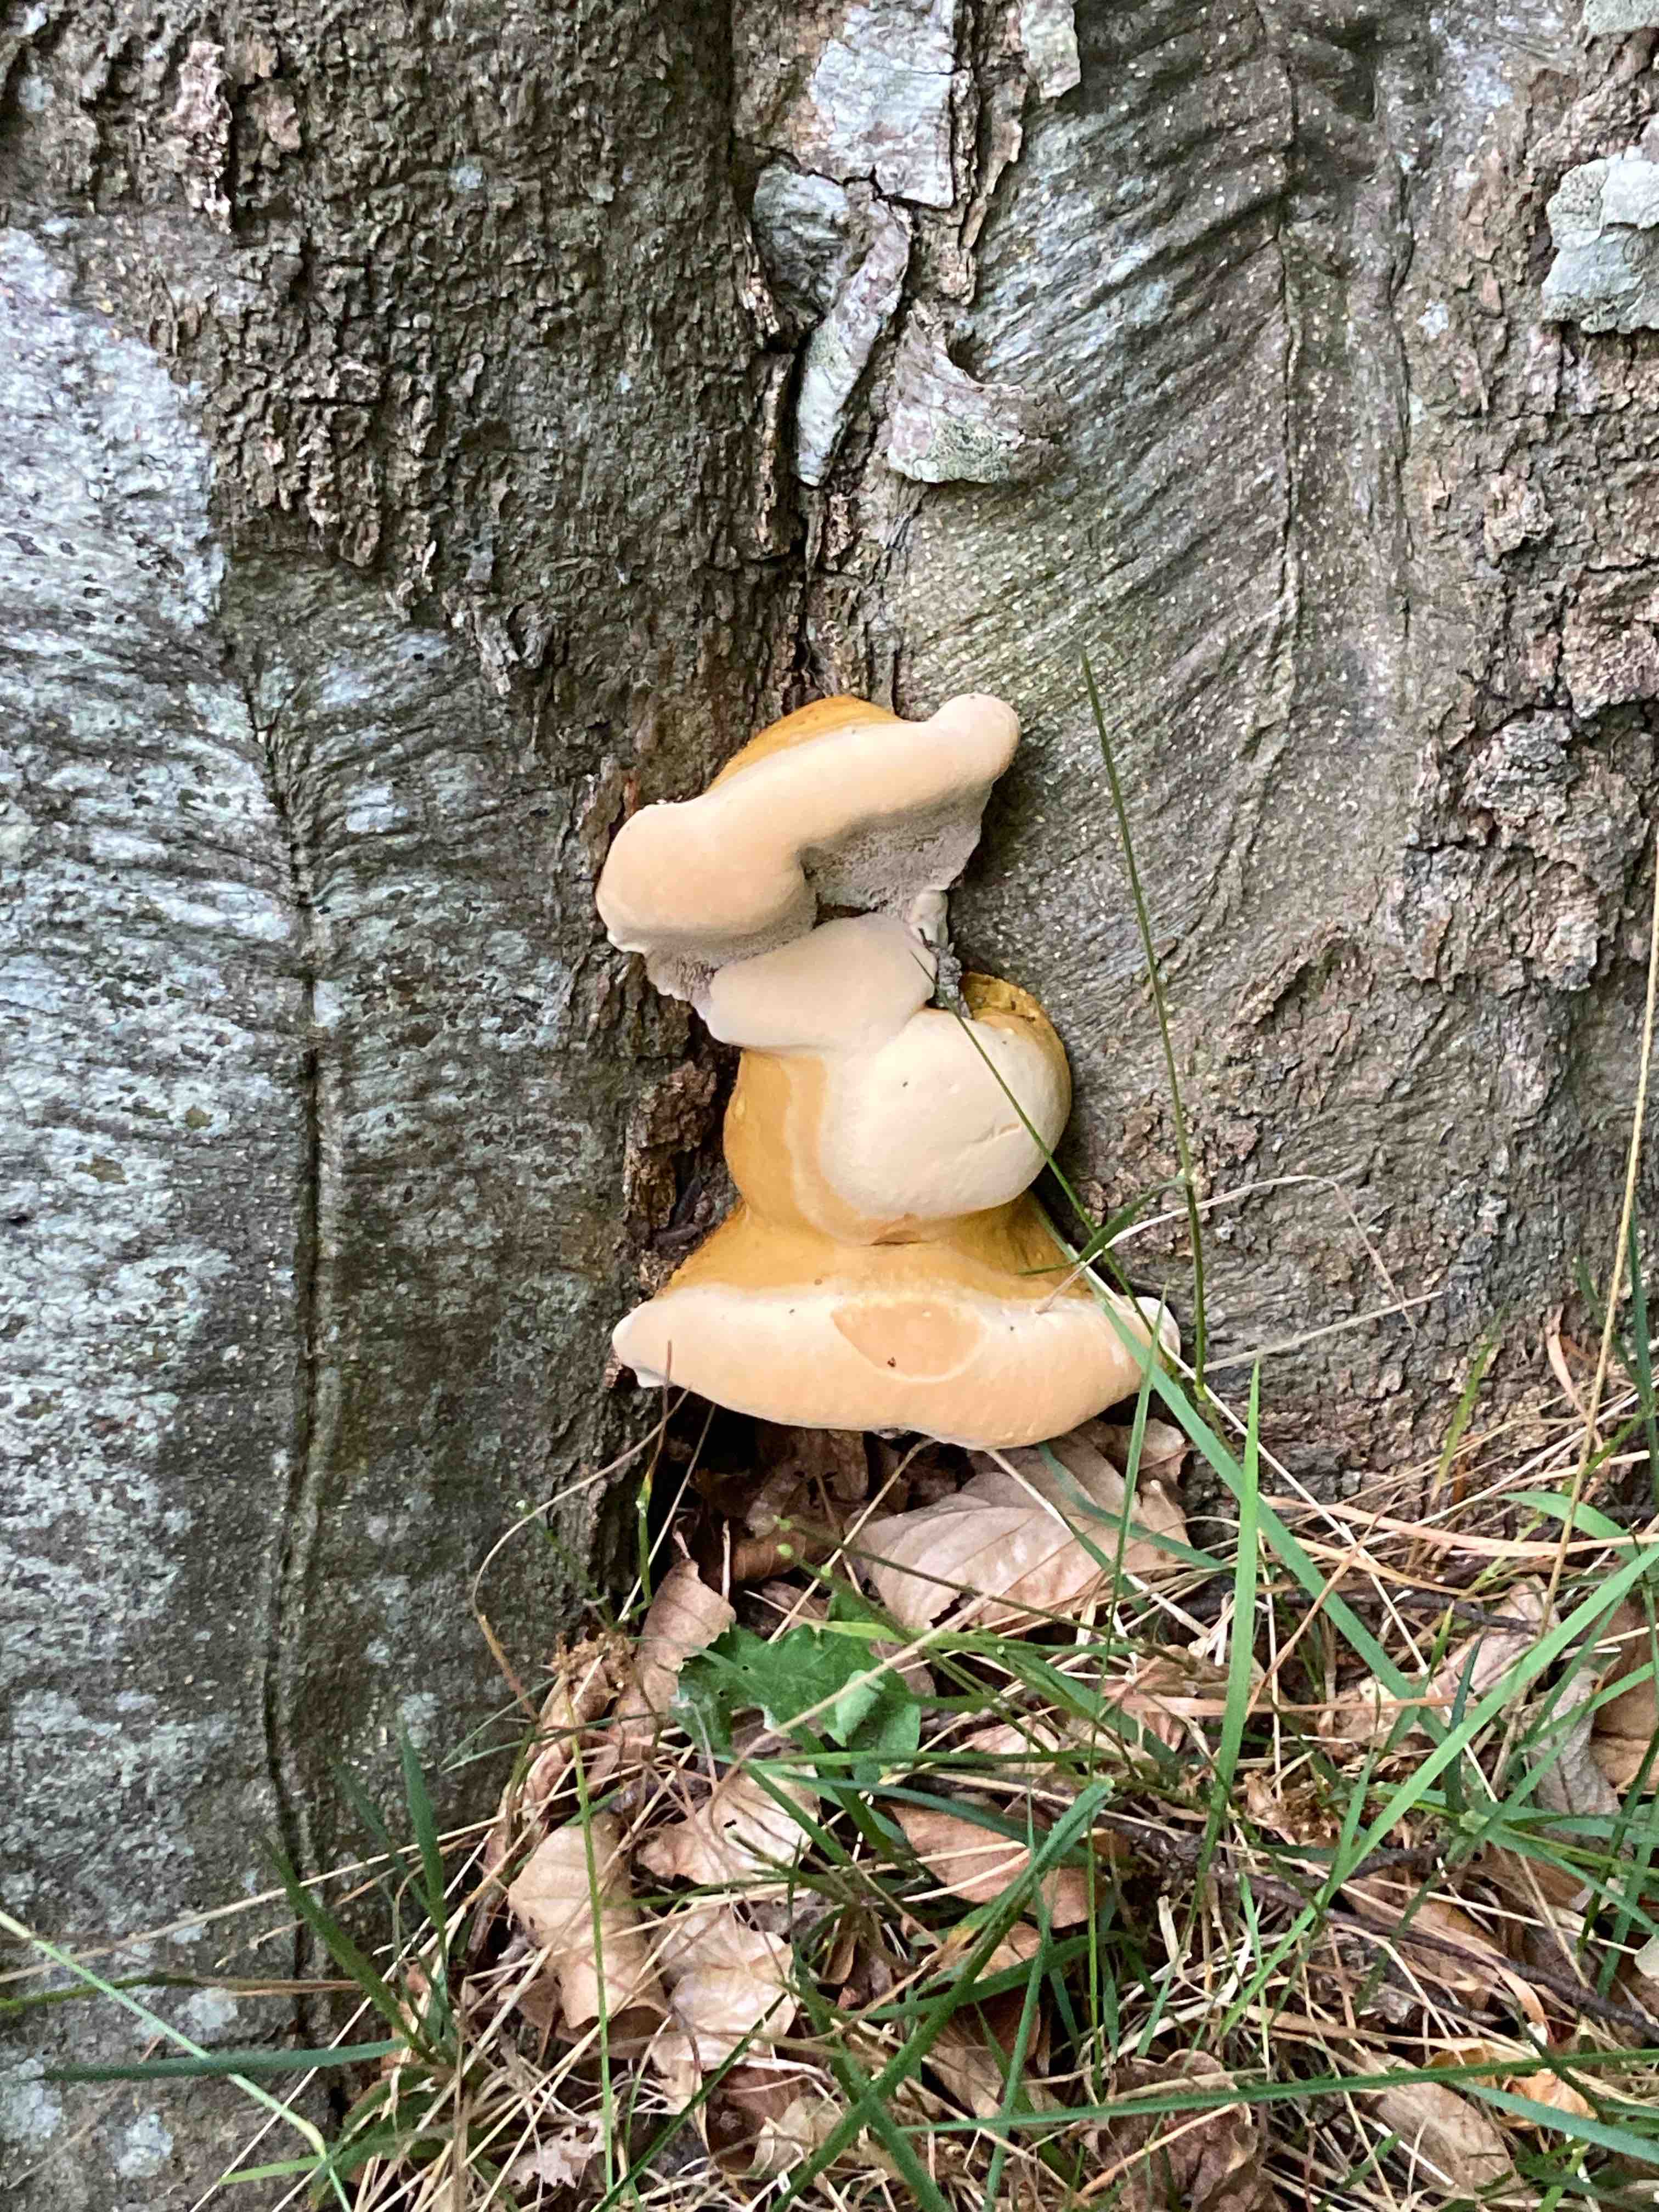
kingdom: Fungi
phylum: Basidiomycota
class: Agaricomycetes
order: Polyporales
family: Polyporaceae
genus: Ganoderma
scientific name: Ganoderma resinaceum
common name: gyldenbrun lakporesvamp
